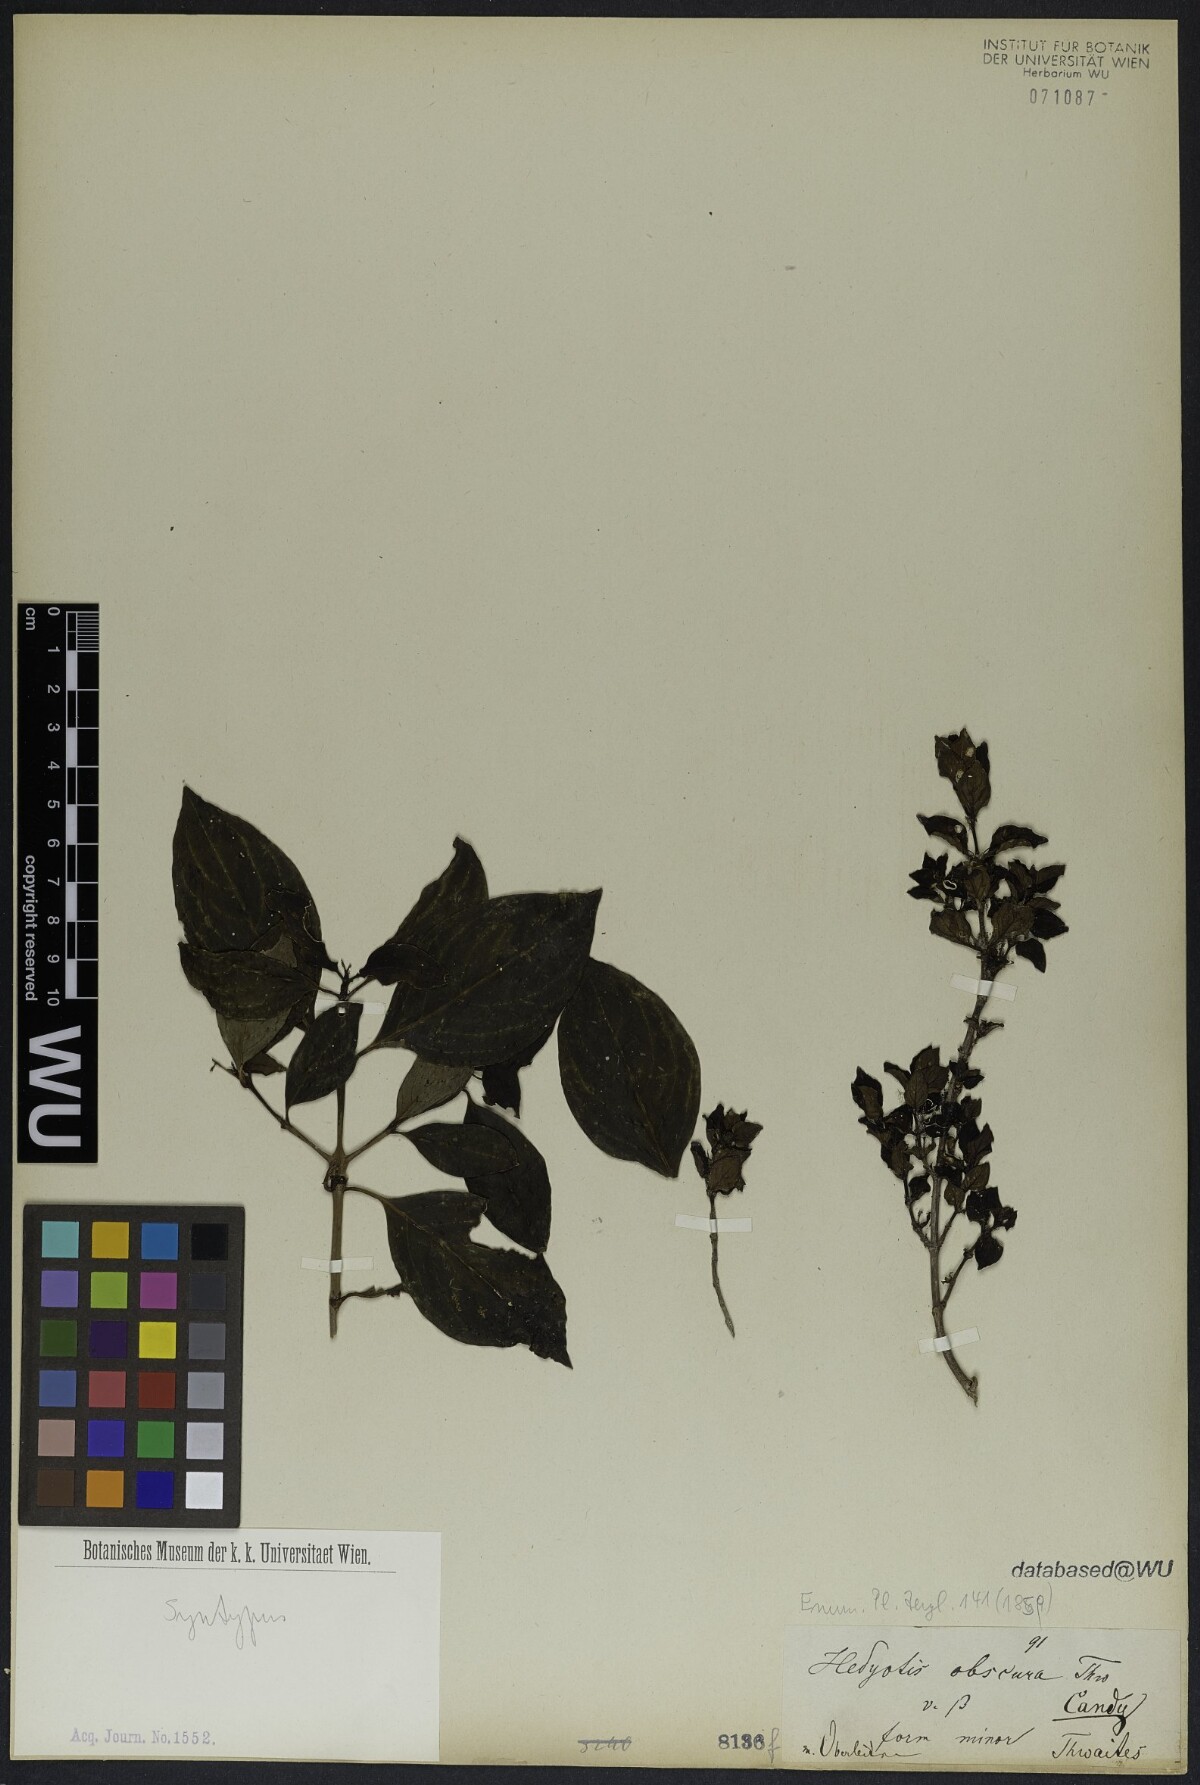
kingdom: Plantae
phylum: Tracheophyta
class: Magnoliopsida
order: Gentianales
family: Rubiaceae
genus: Hedyotis
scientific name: Hedyotis obscura
